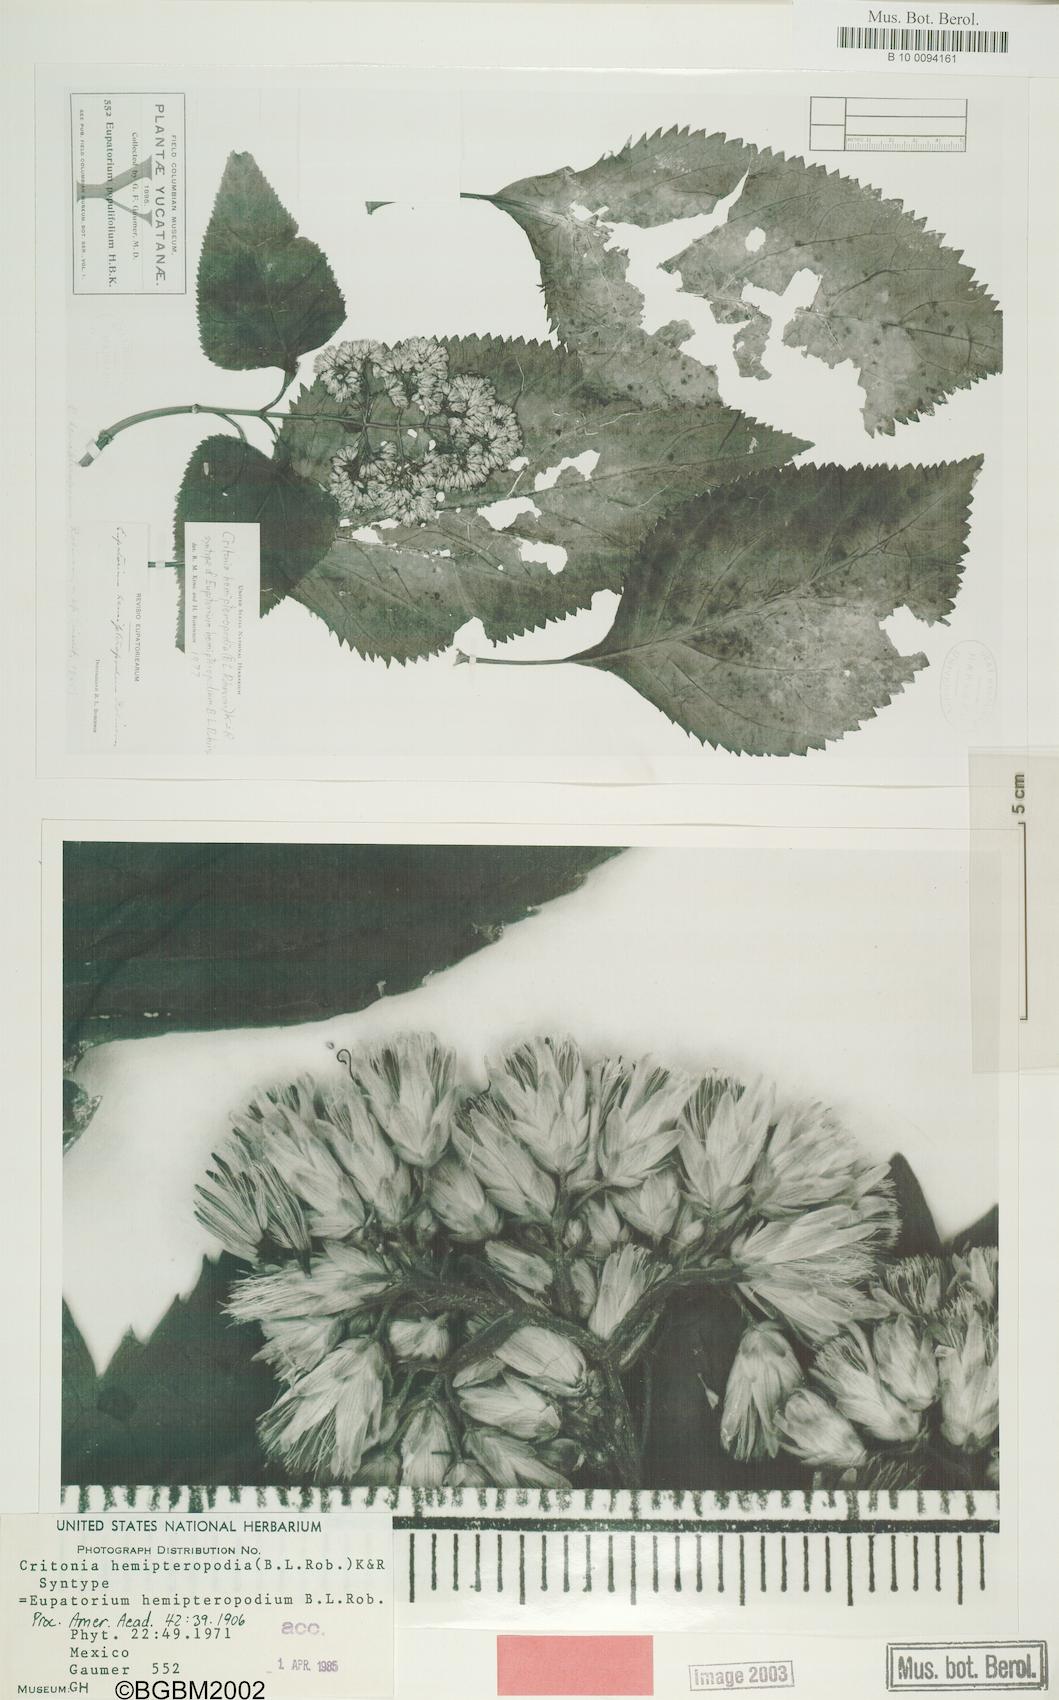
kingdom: Plantae
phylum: Tracheophyta
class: Magnoliopsida
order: Asterales
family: Asteraceae
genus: Critonia
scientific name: Critonia aromatisans
